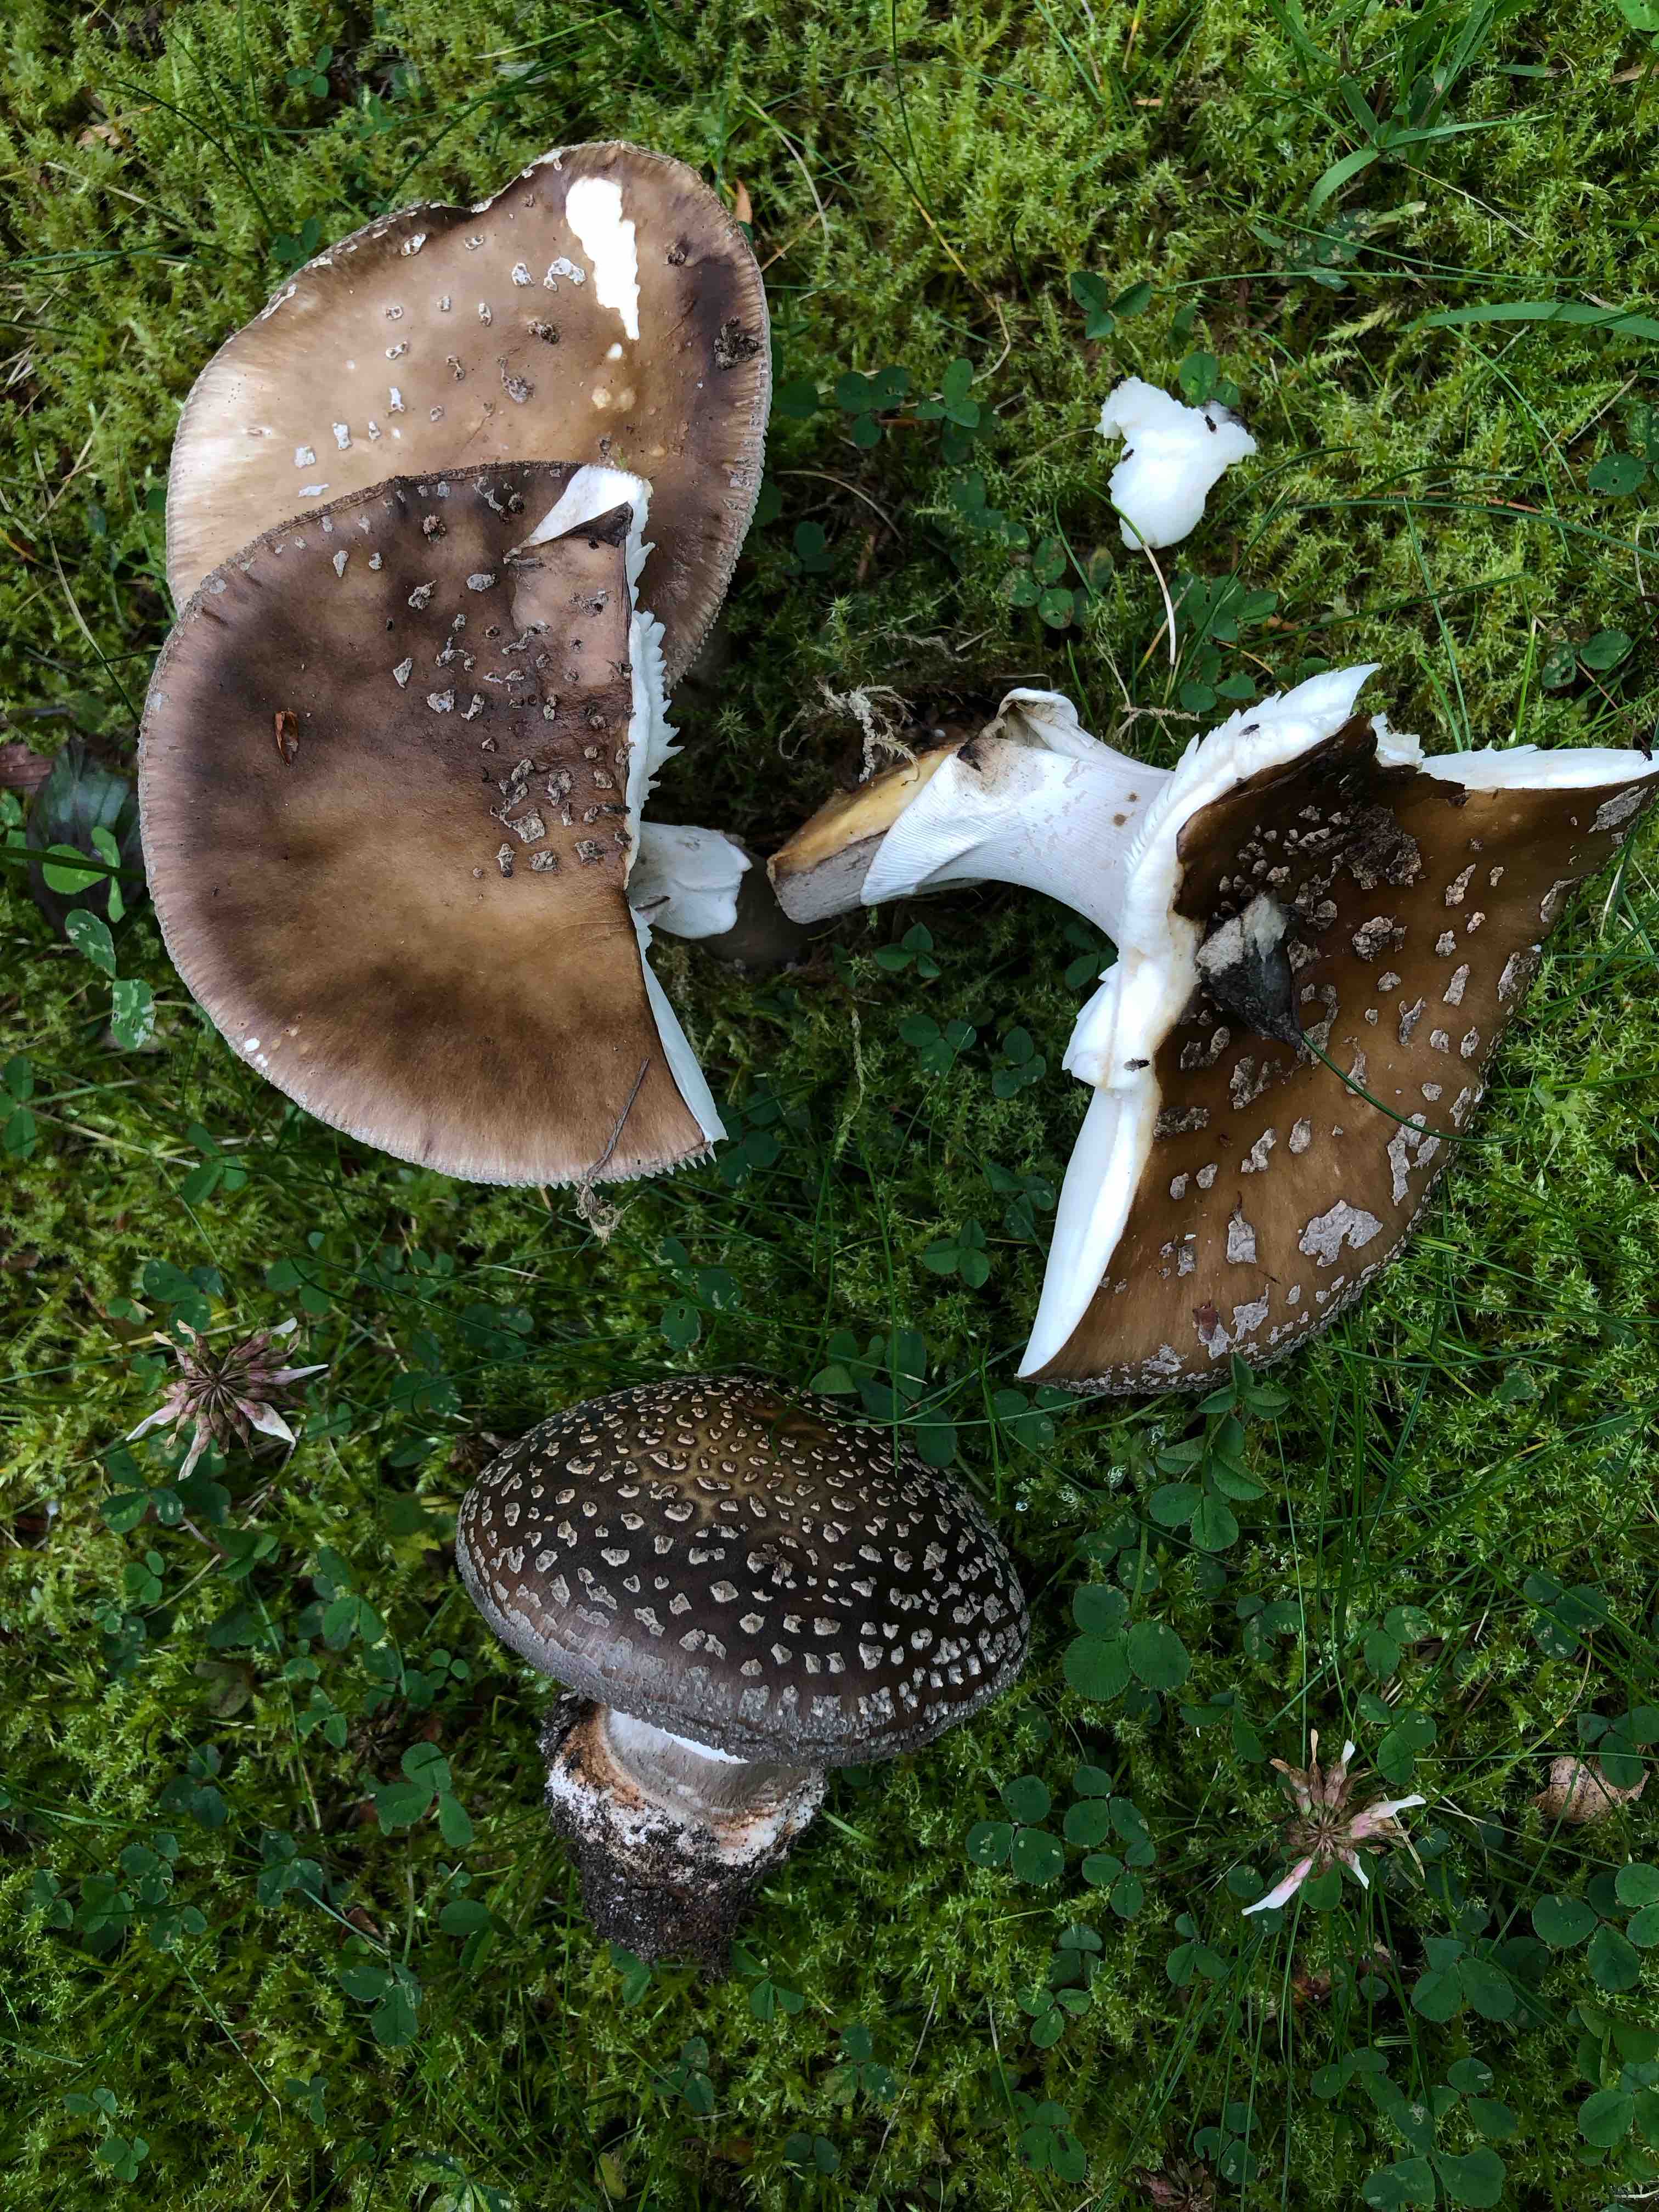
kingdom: Fungi
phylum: Basidiomycota
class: Agaricomycetes
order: Agaricales
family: Amanitaceae
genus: Amanita
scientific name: Amanita pantherina
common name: panter-fluesvamp
